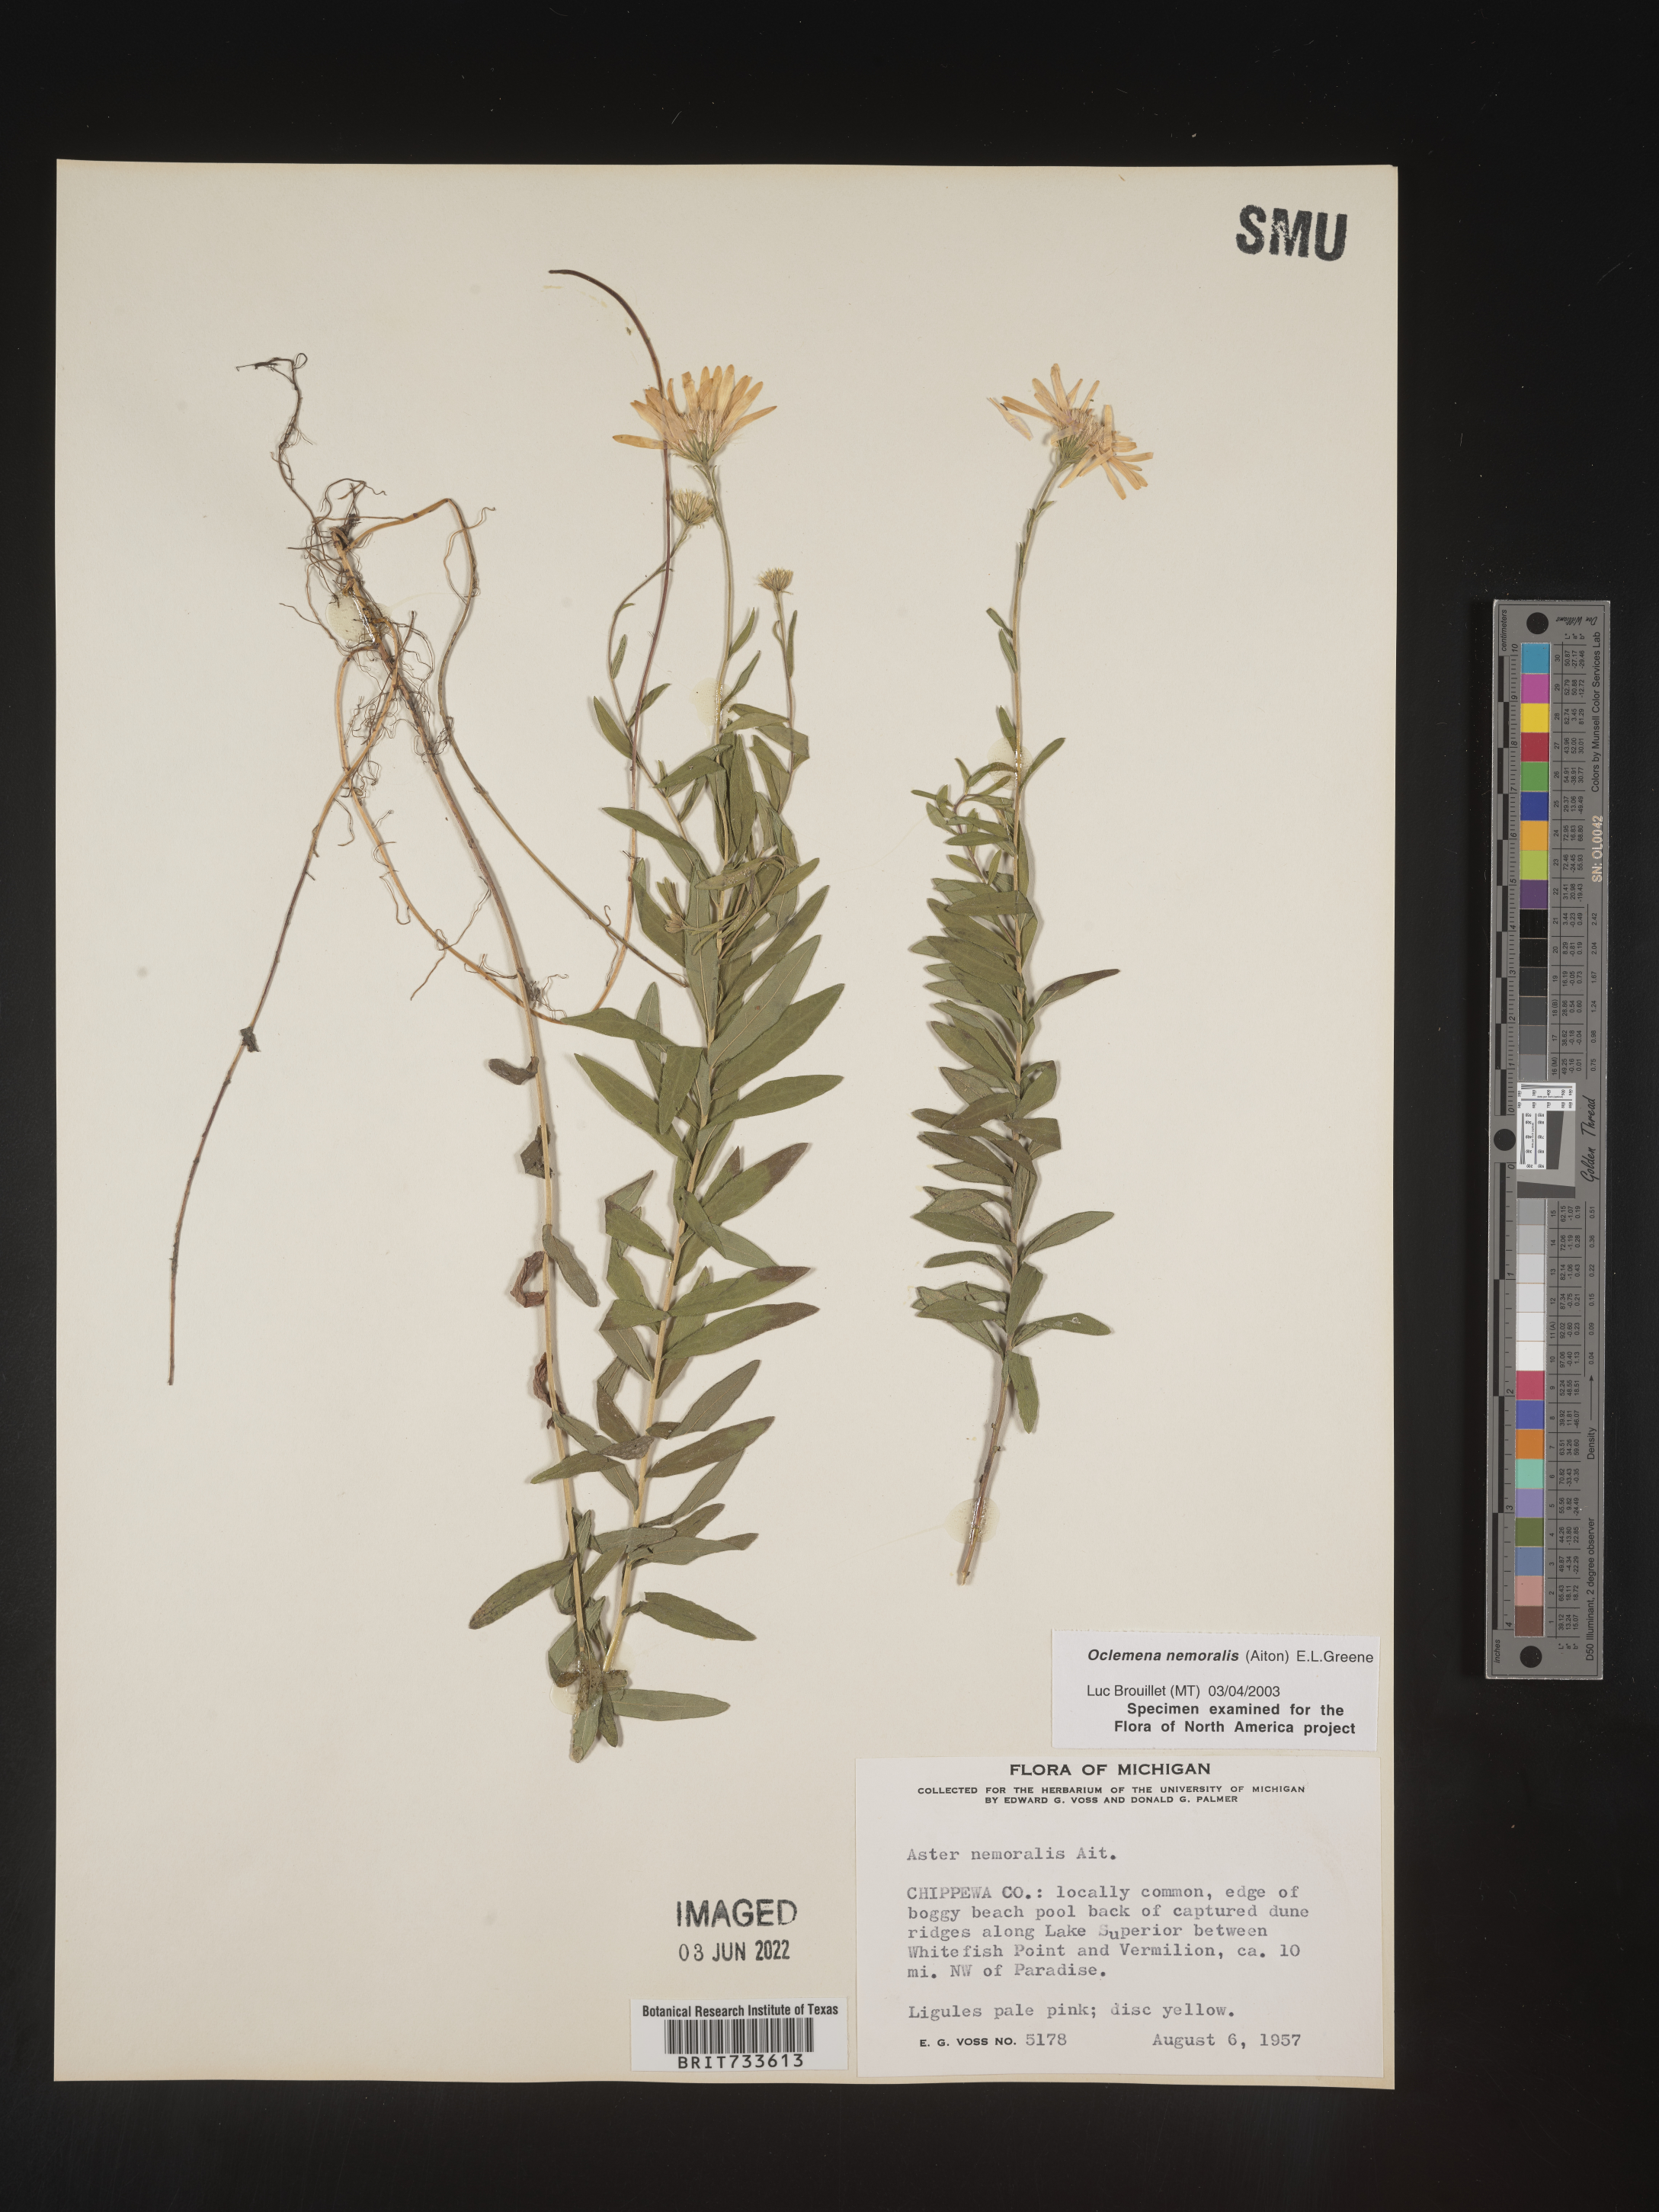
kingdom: Plantae
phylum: Tracheophyta
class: Magnoliopsida
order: Asterales
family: Asteraceae
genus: Oclemena
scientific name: Oclemena nemoralis
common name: Bog aster
